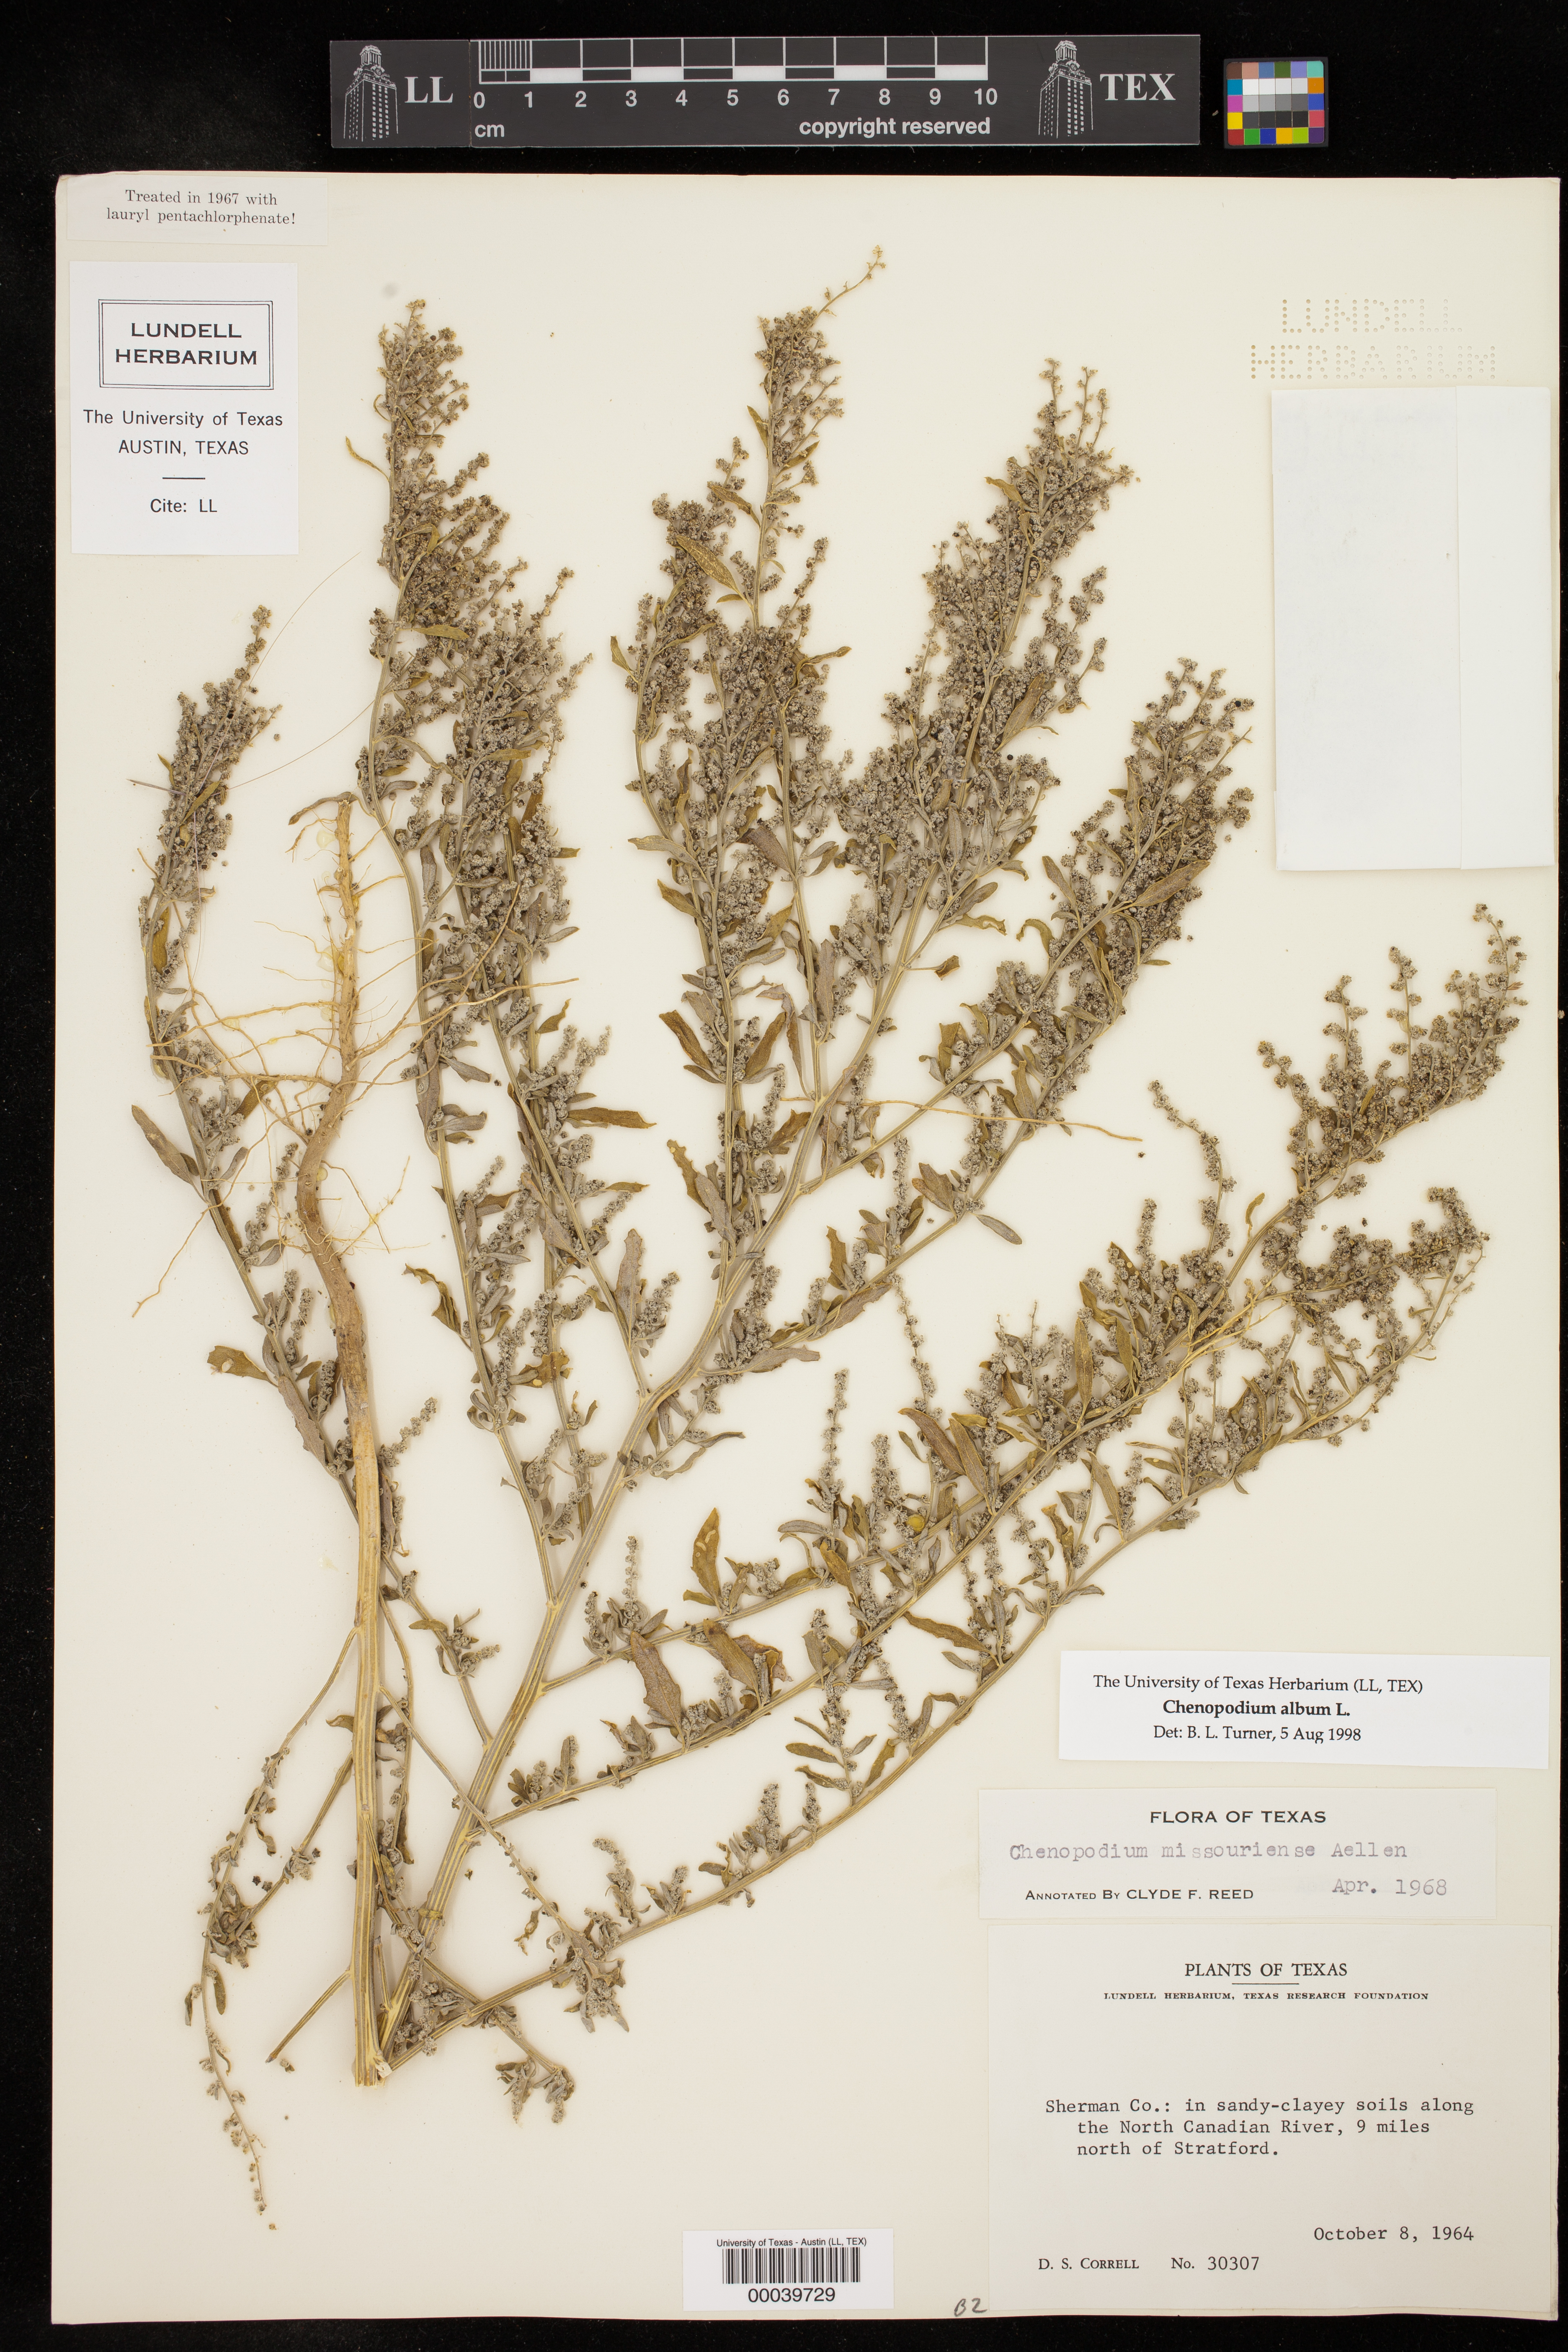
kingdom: Plantae
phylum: Tracheophyta
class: Magnoliopsida
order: Caryophyllales
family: Amaranthaceae
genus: Chenopodium
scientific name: Chenopodium album
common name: Fat-hen
